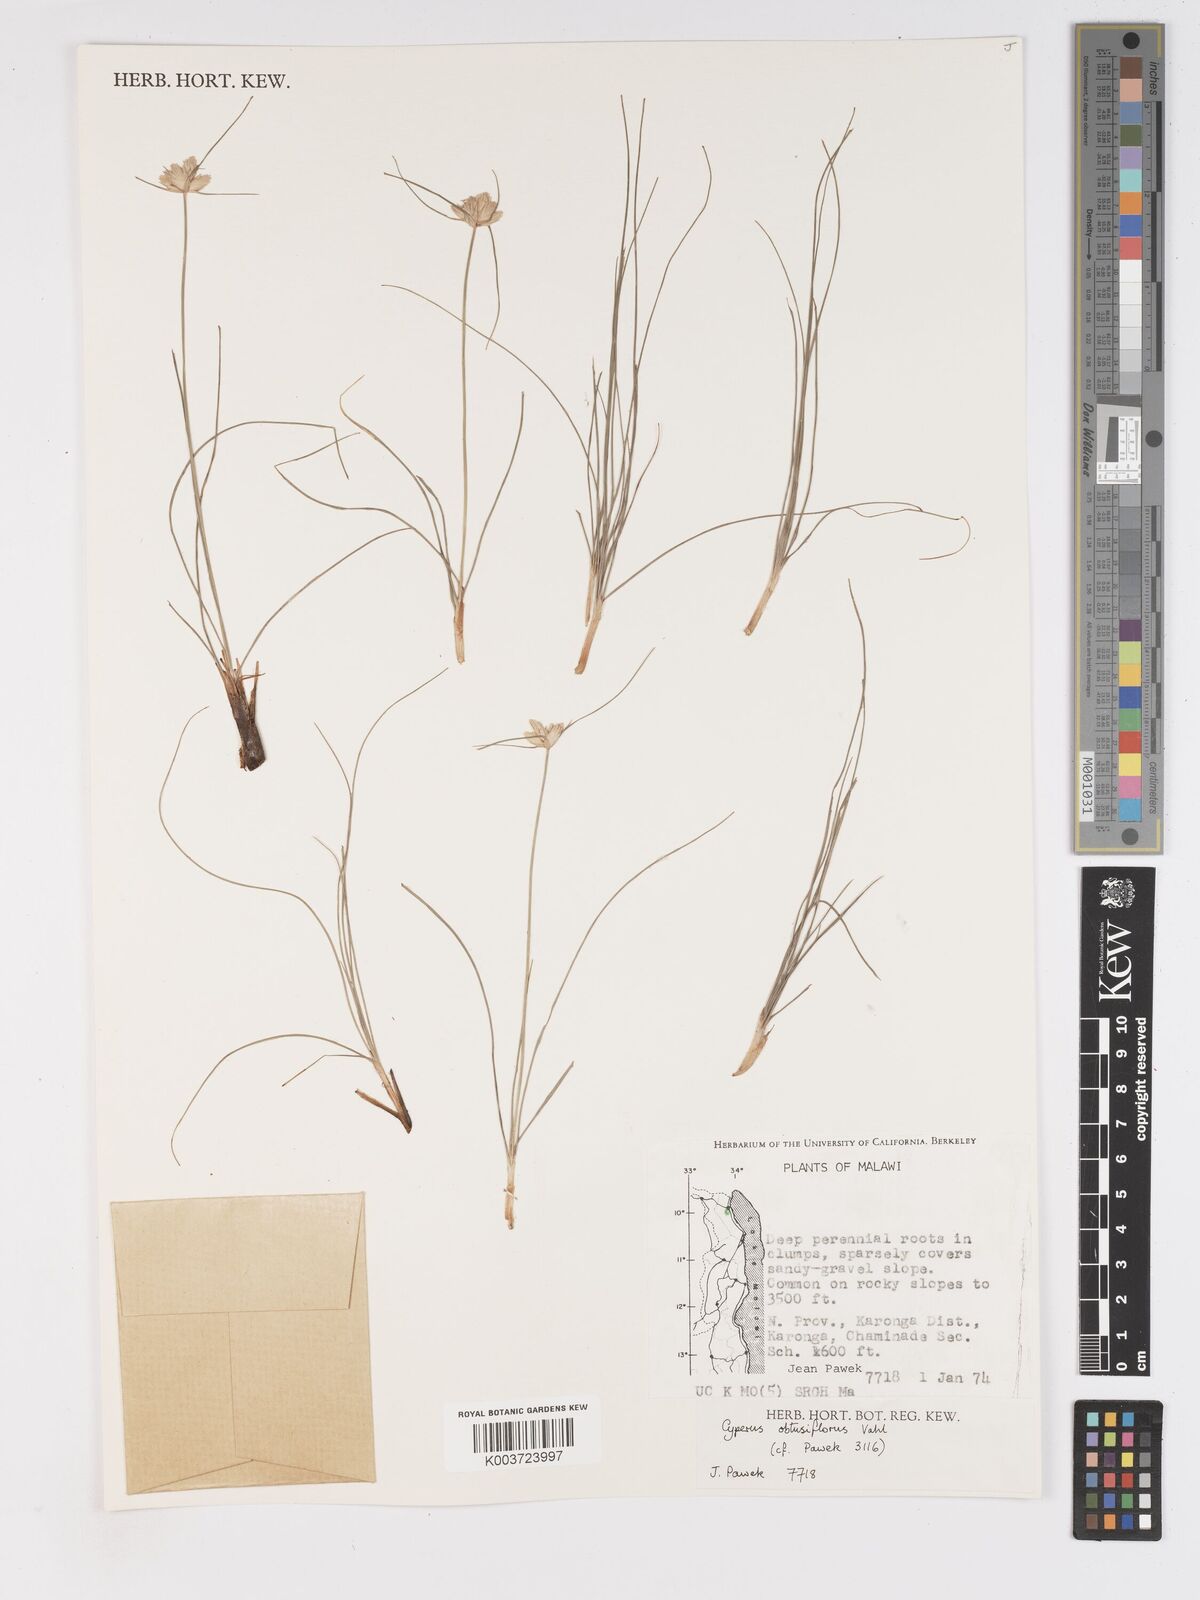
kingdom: Plantae
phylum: Tracheophyta
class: Liliopsida
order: Poales
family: Cyperaceae
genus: Cyperus
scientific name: Cyperus niveus
